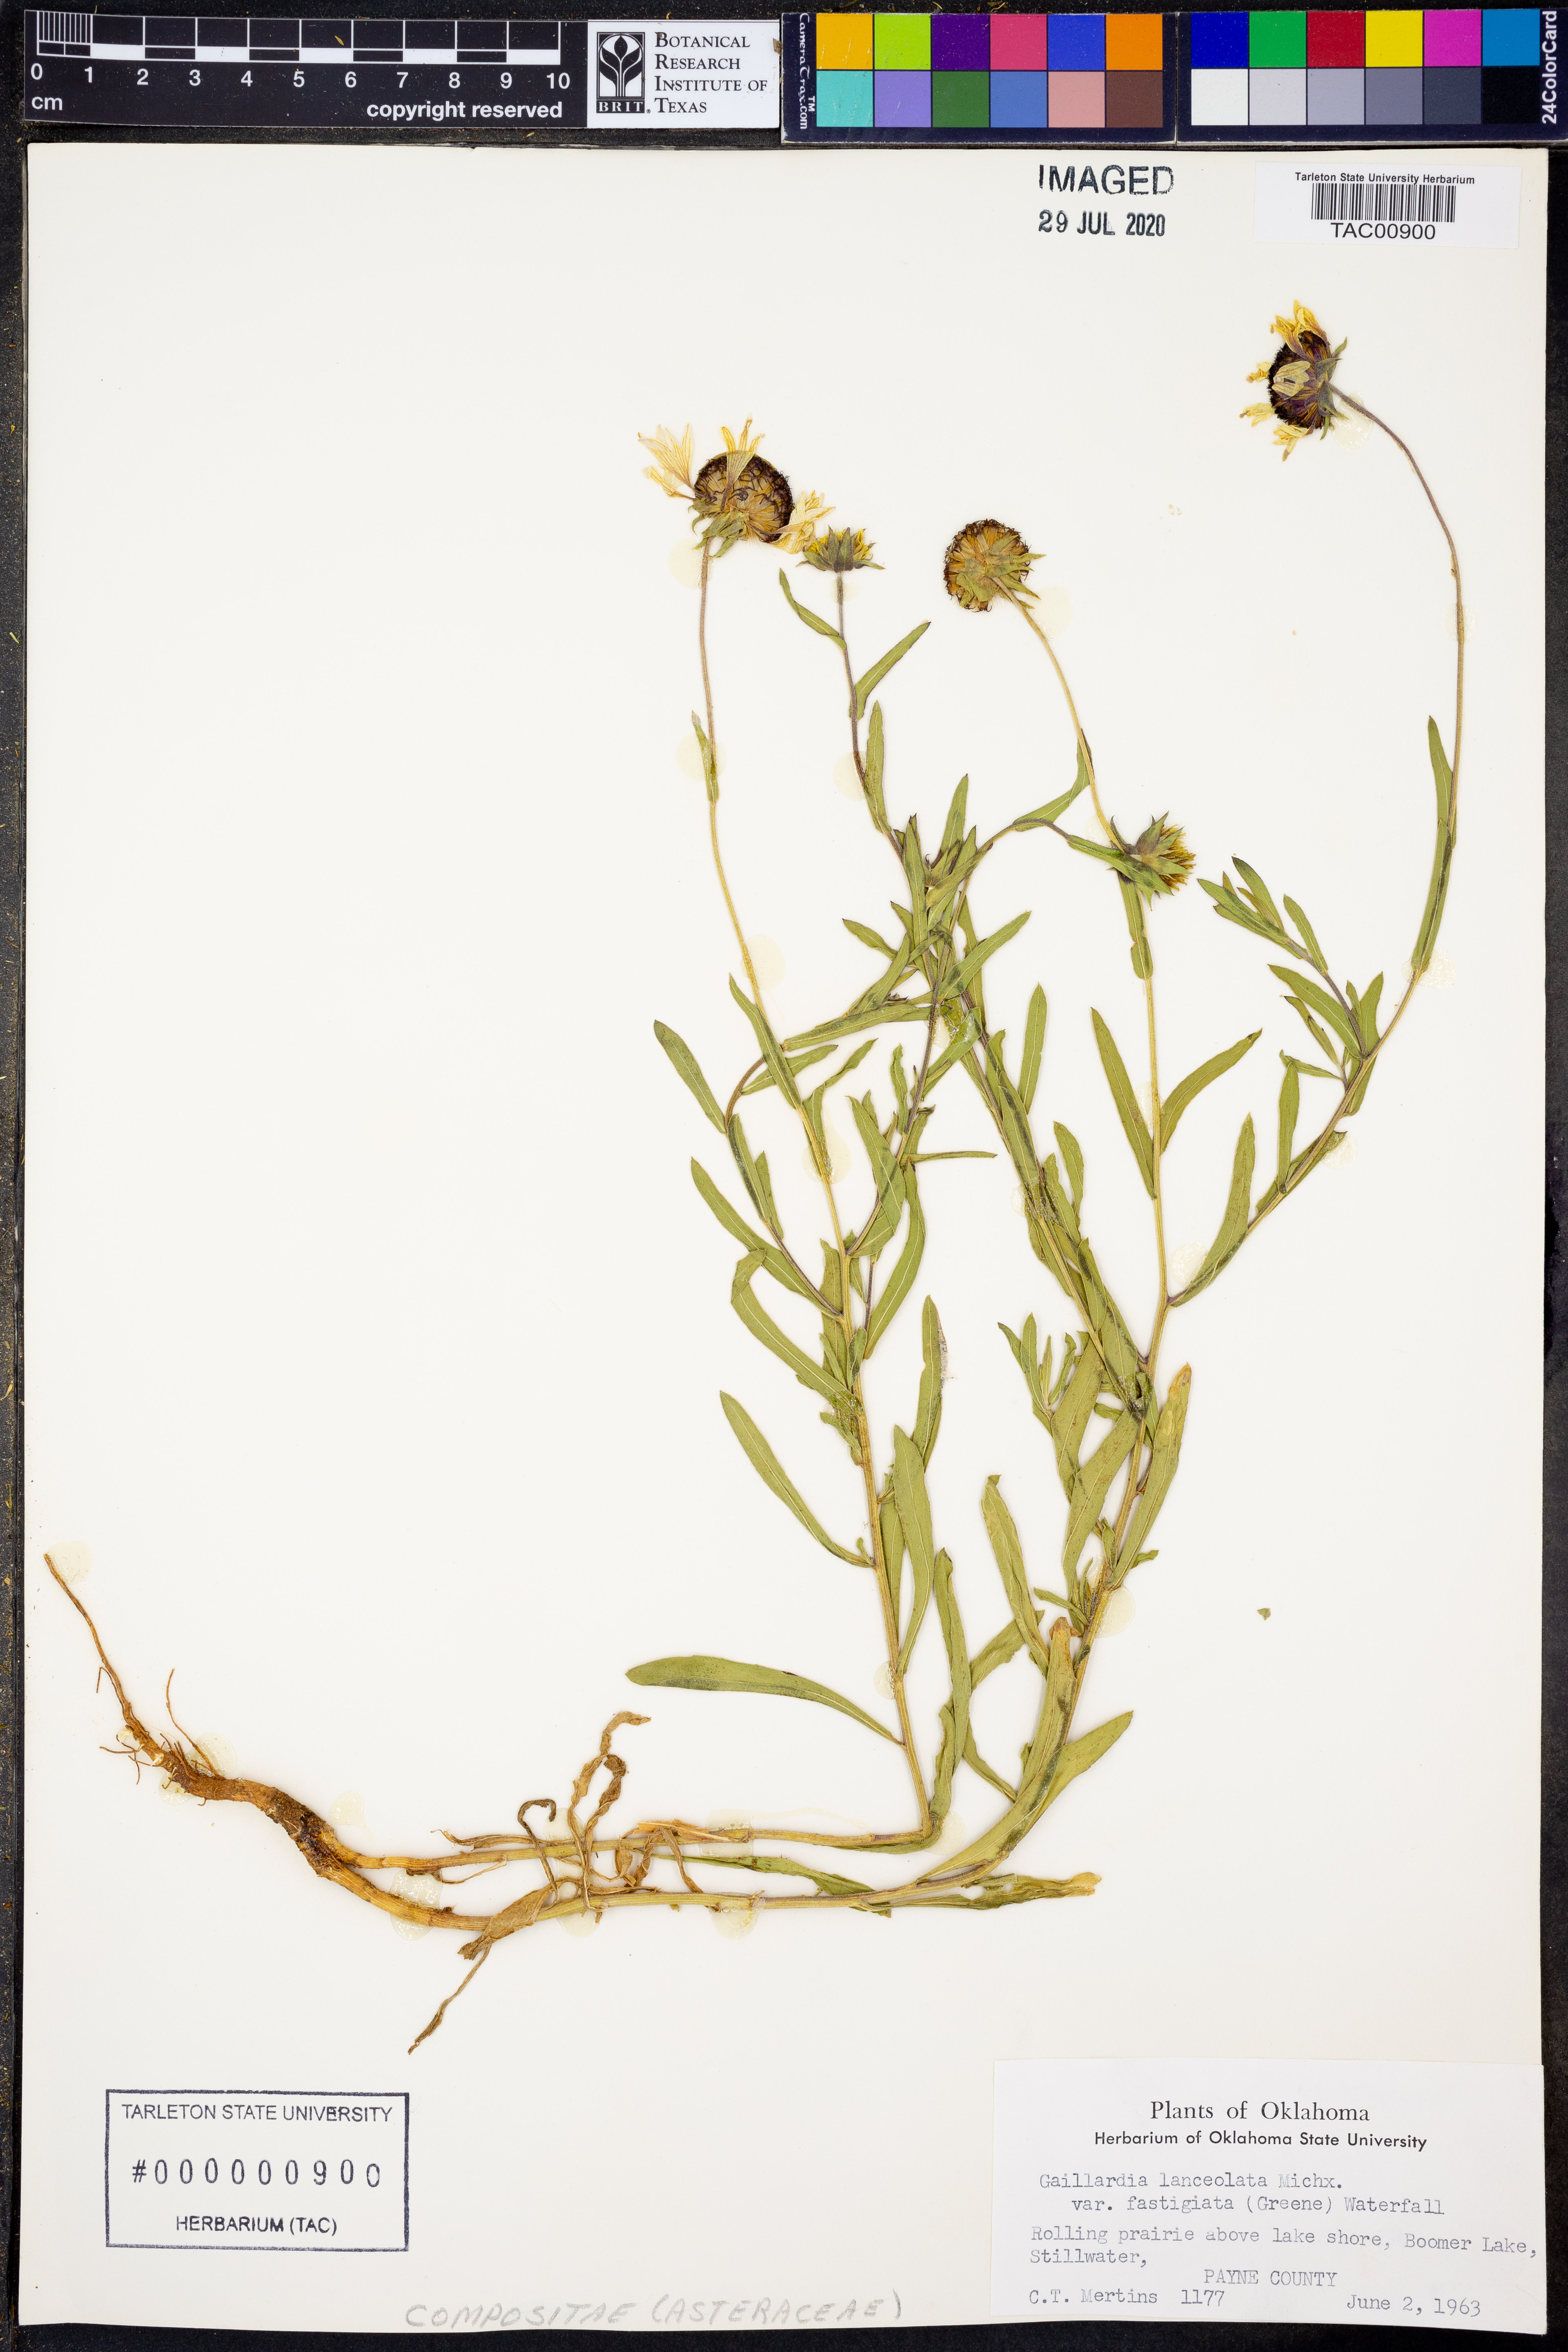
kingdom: Plantae
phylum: Tracheophyta
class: Magnoliopsida
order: Asterales
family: Asteraceae
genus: Gaillardia
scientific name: Gaillardia aestivalis
